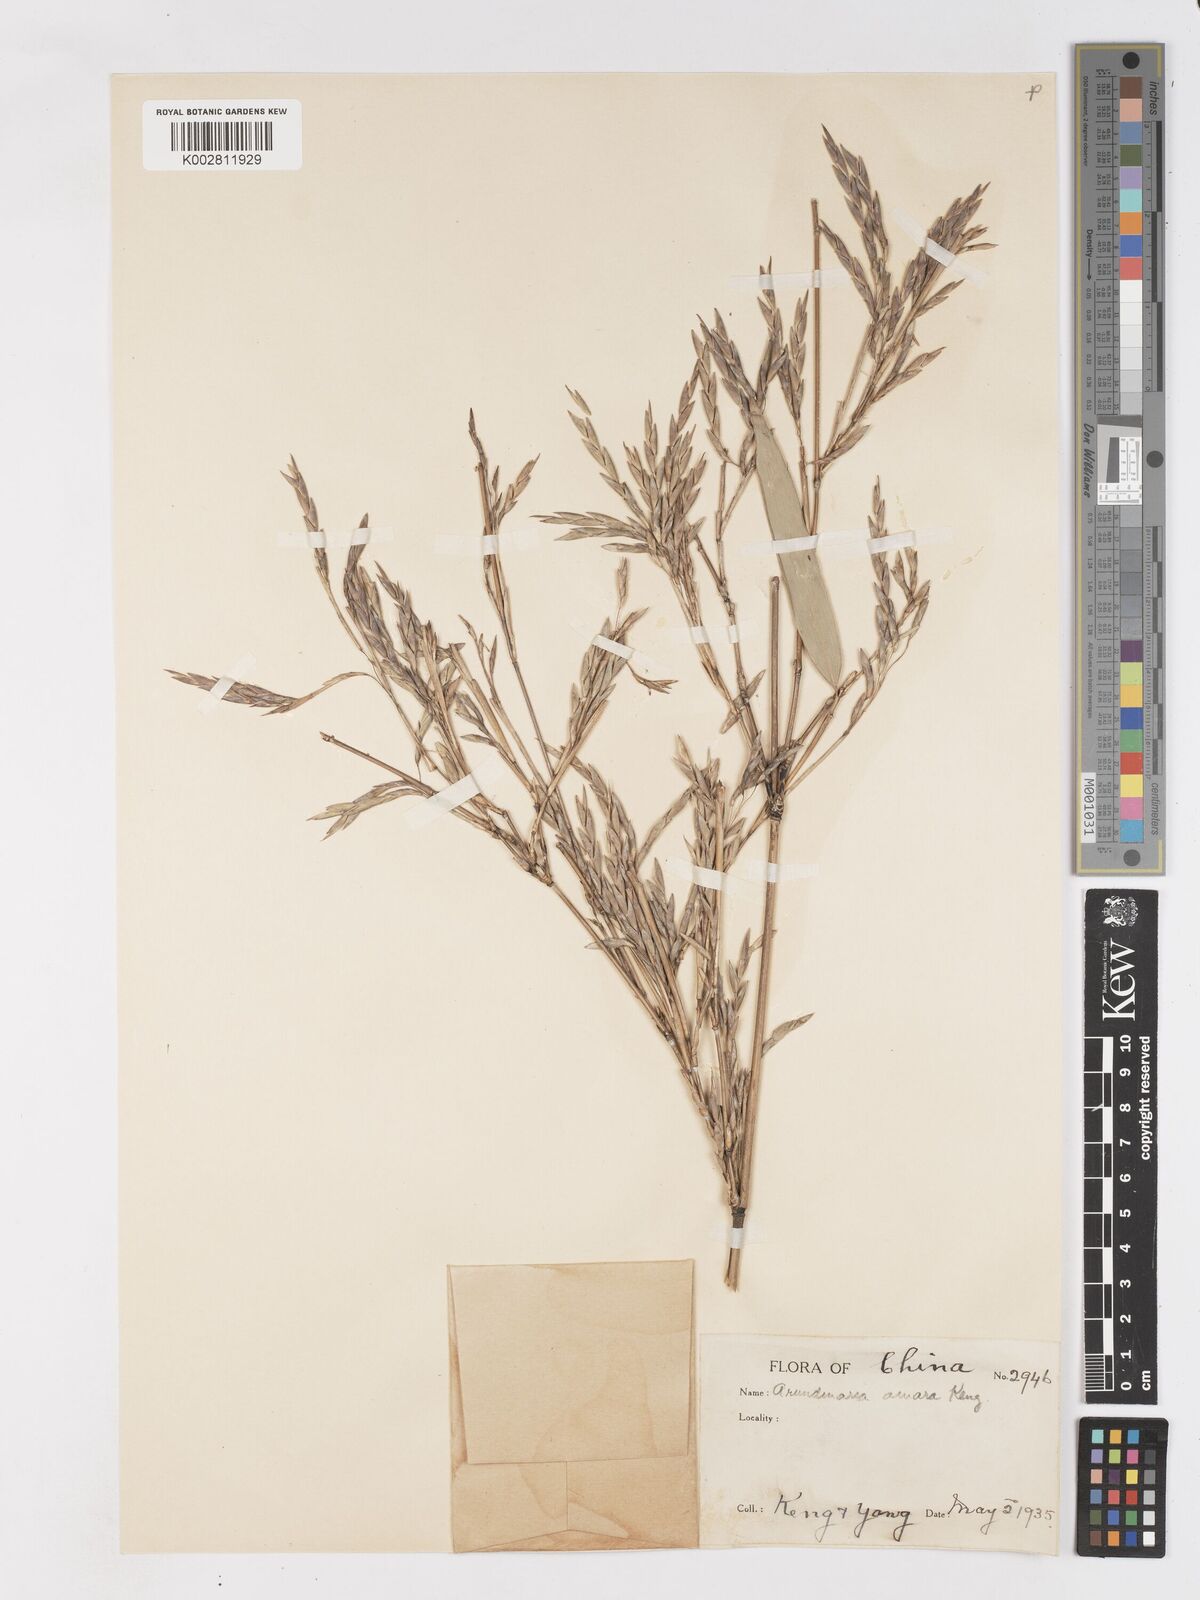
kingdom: Plantae
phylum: Tracheophyta
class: Liliopsida
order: Poales
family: Poaceae
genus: Pleioblastus
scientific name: Pleioblastus amarus
